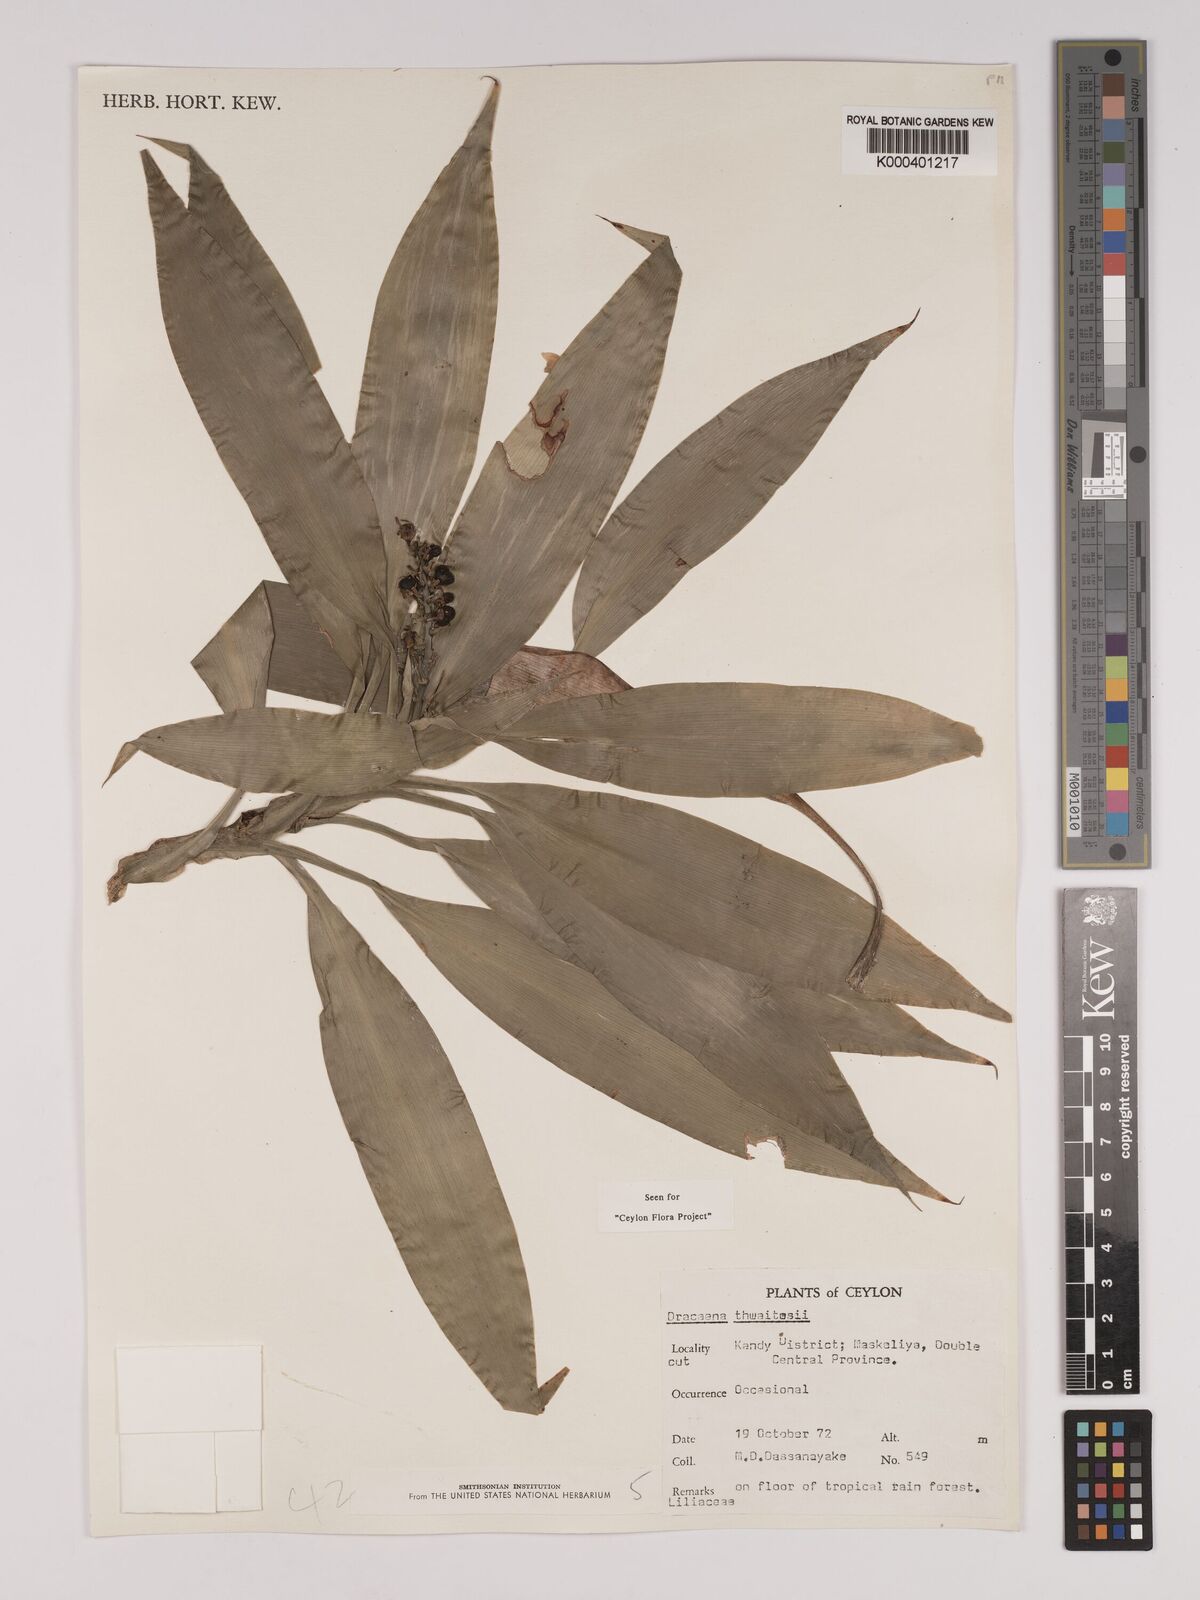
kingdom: Plantae
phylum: Tracheophyta
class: Liliopsida
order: Asparagales
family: Asparagaceae
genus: Dracaena
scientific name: Dracaena thwaitesii
